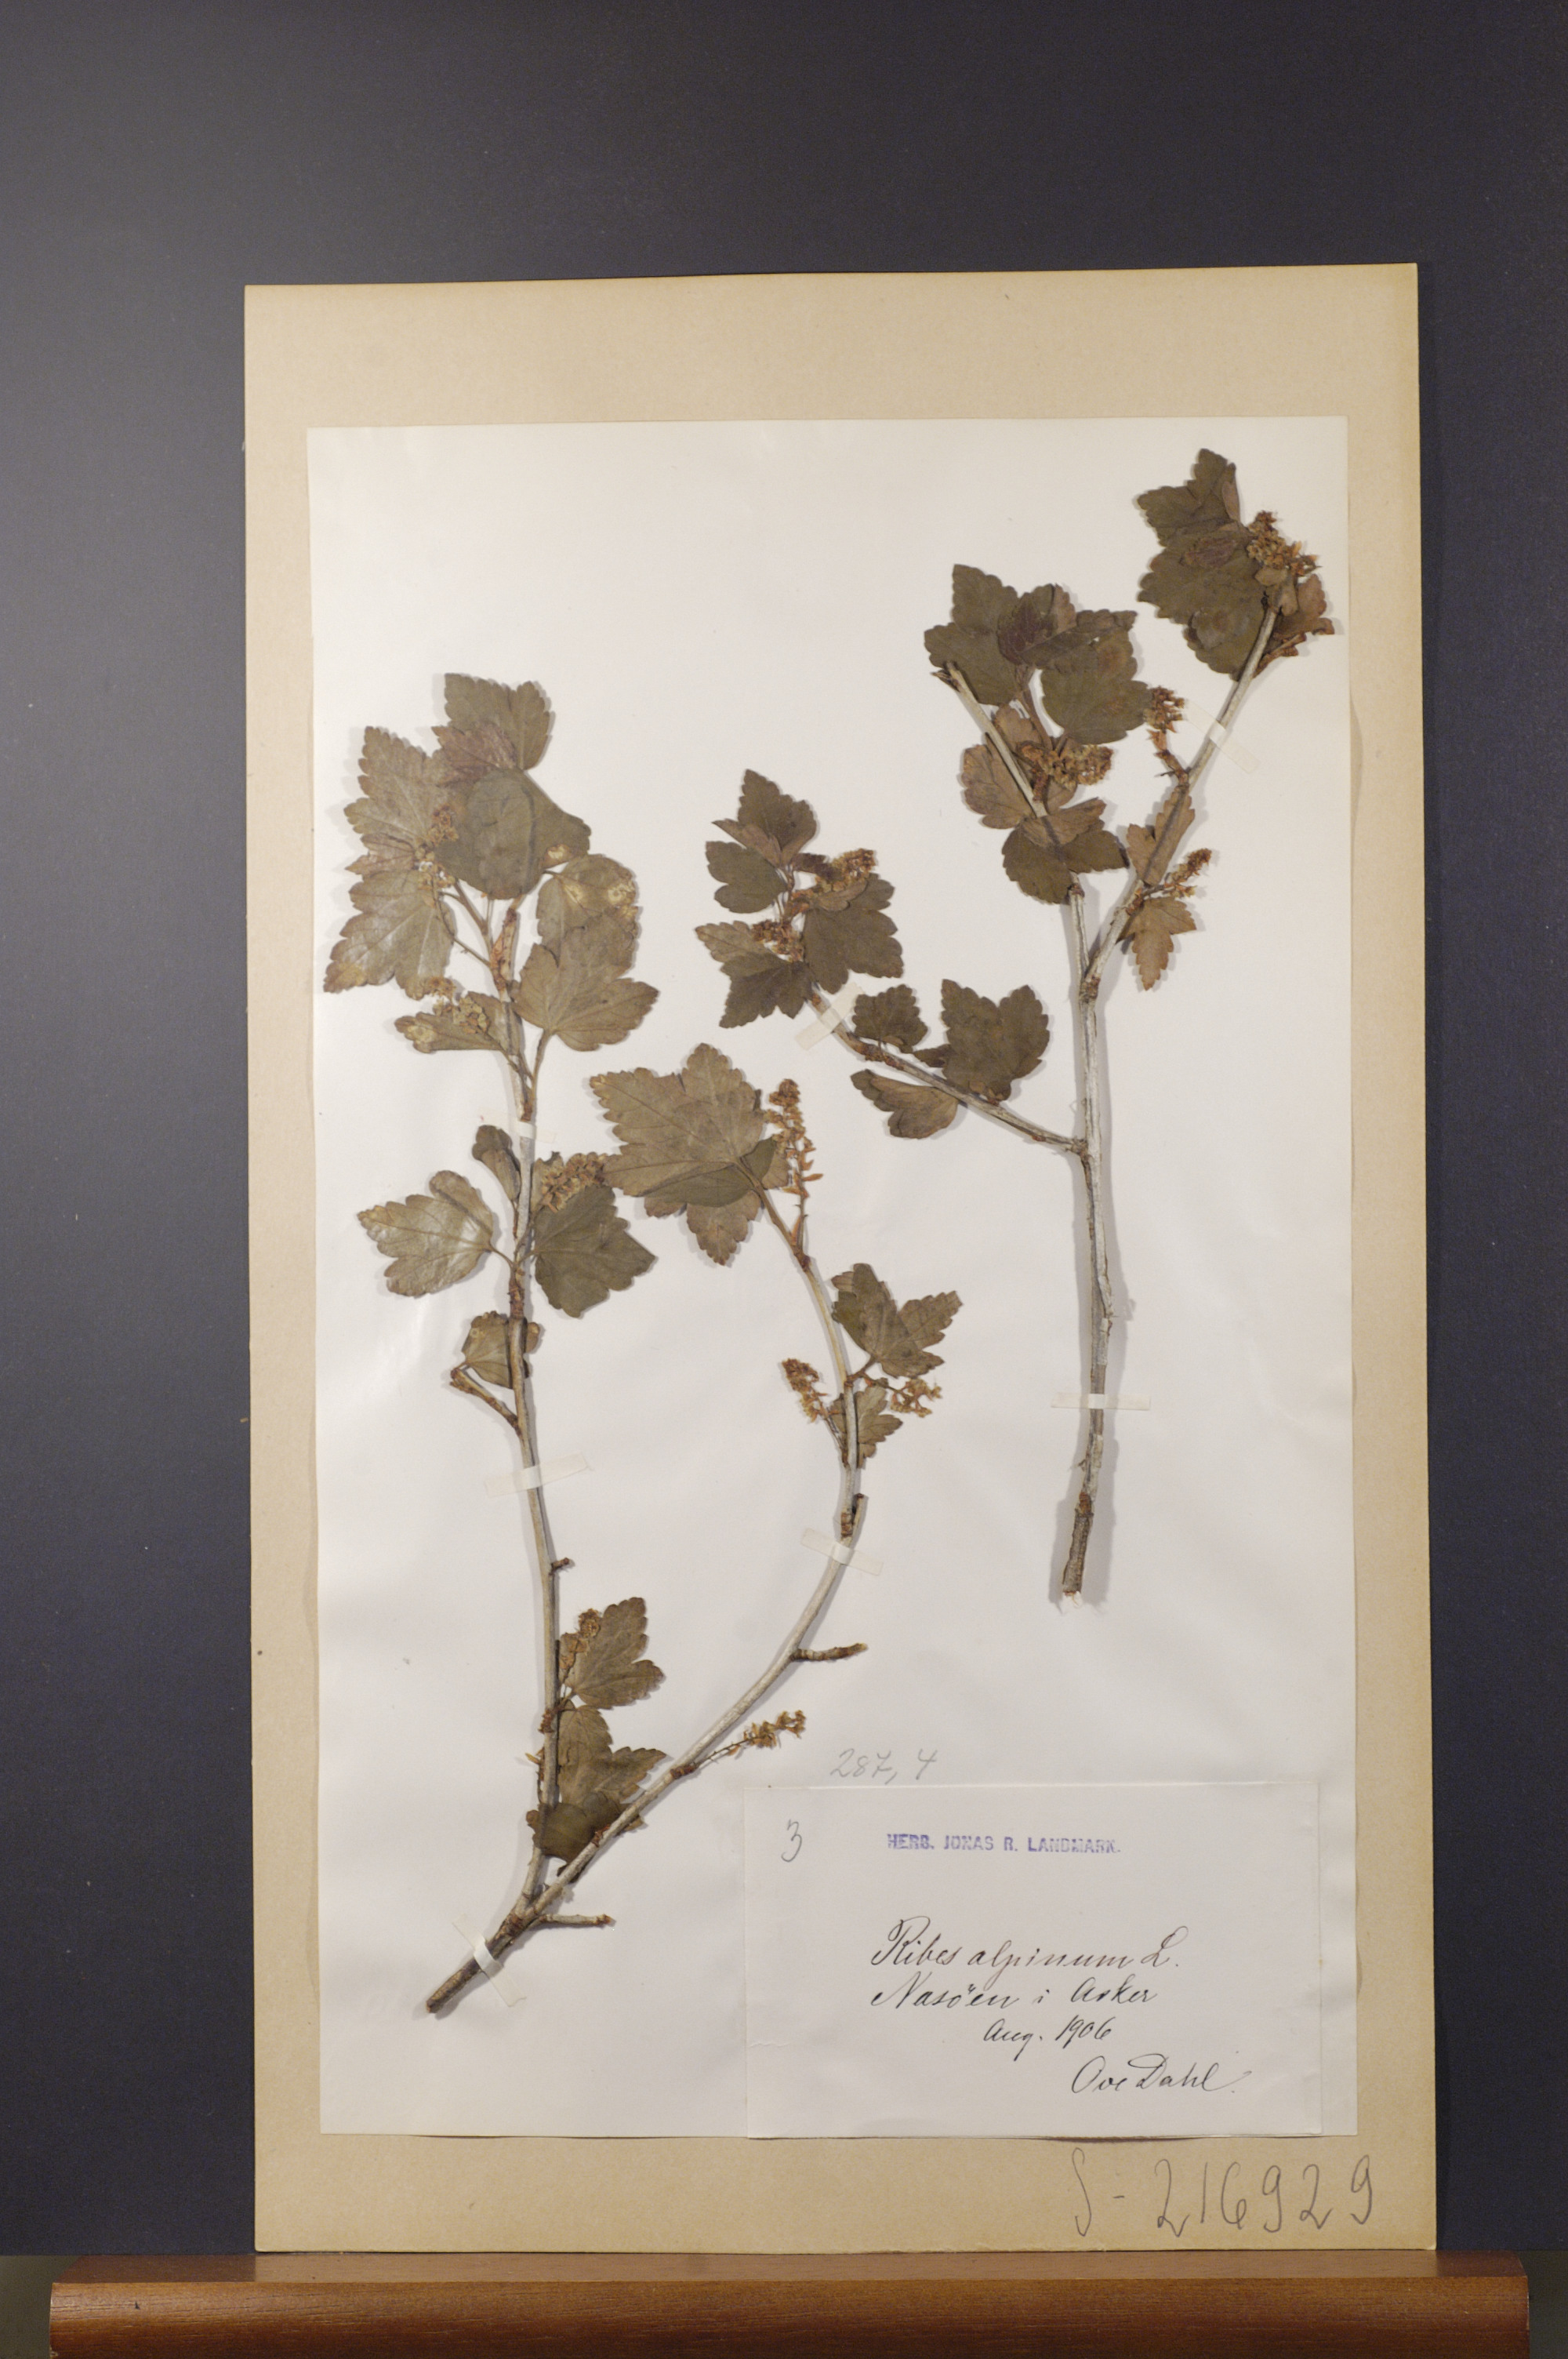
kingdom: Plantae
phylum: Tracheophyta
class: Magnoliopsida
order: Saxifragales
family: Grossulariaceae
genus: Ribes
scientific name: Ribes alpinum
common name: Alpine currant
